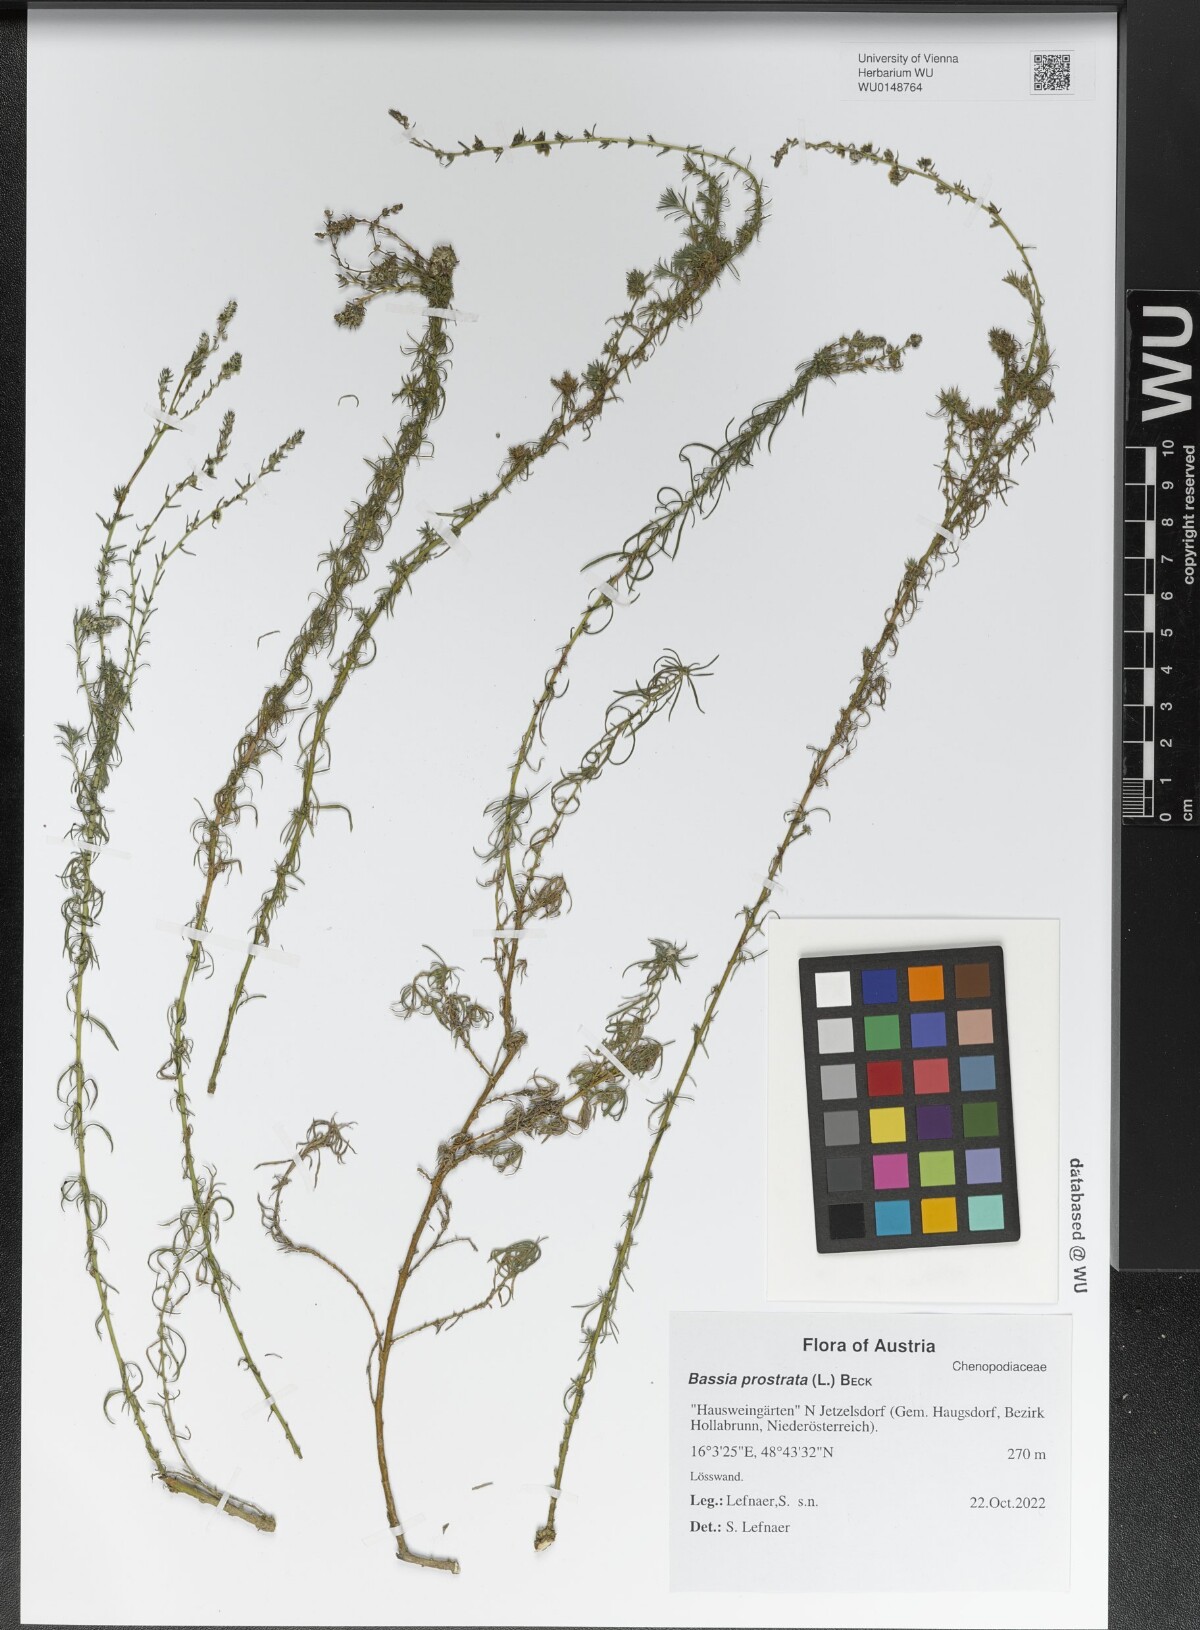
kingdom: Plantae
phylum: Tracheophyta
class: Magnoliopsida
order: Caryophyllales
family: Amaranthaceae
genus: Bassia
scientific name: Bassia prostrata
